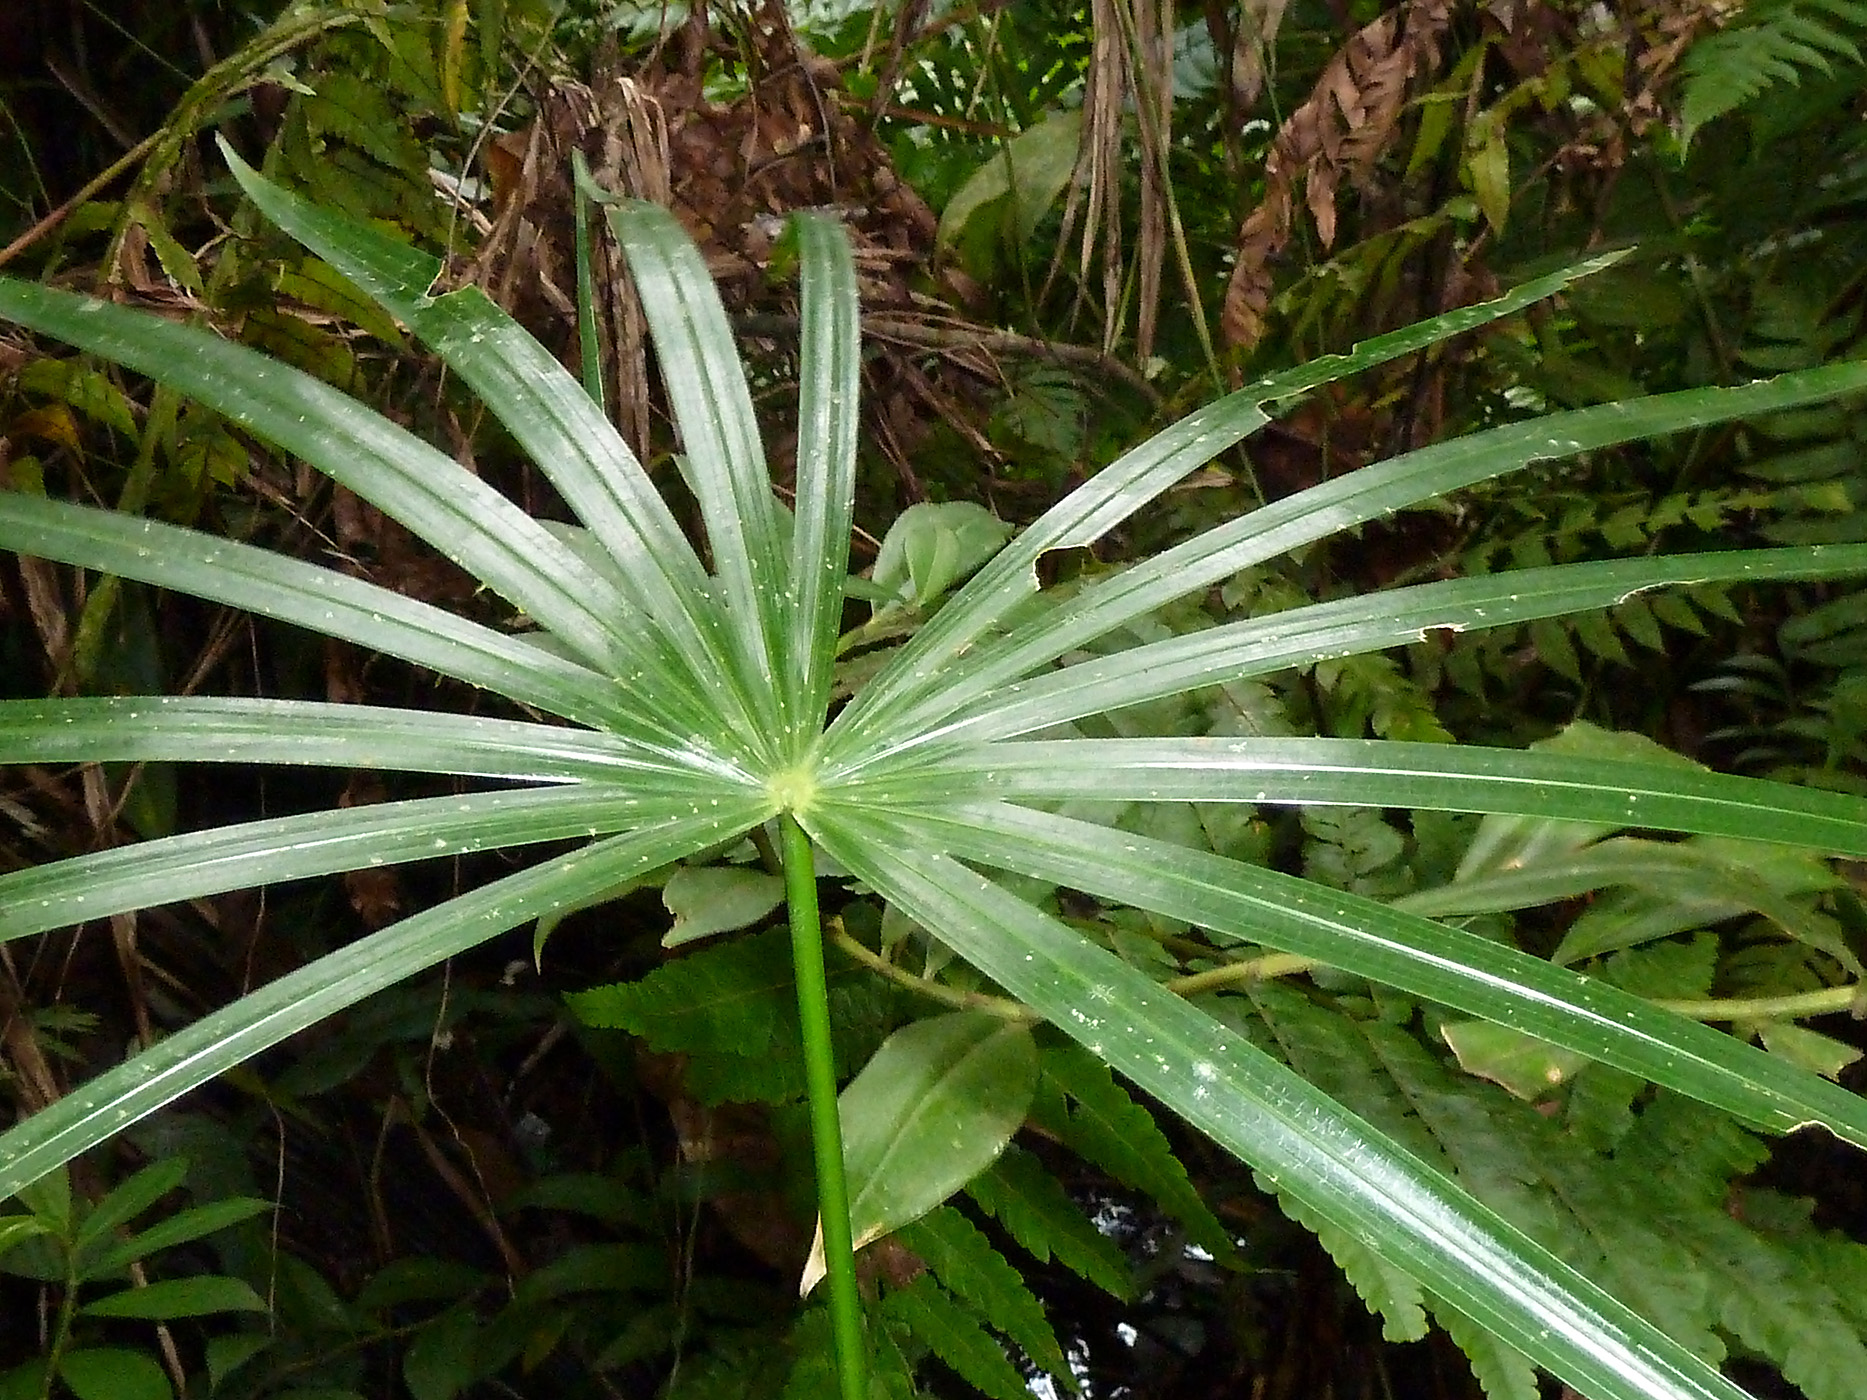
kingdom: Plantae
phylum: Tracheophyta
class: Liliopsida
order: Arecales
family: Arecaceae
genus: Mauritia
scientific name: Mauritia flexuosa
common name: Tree-of-life
